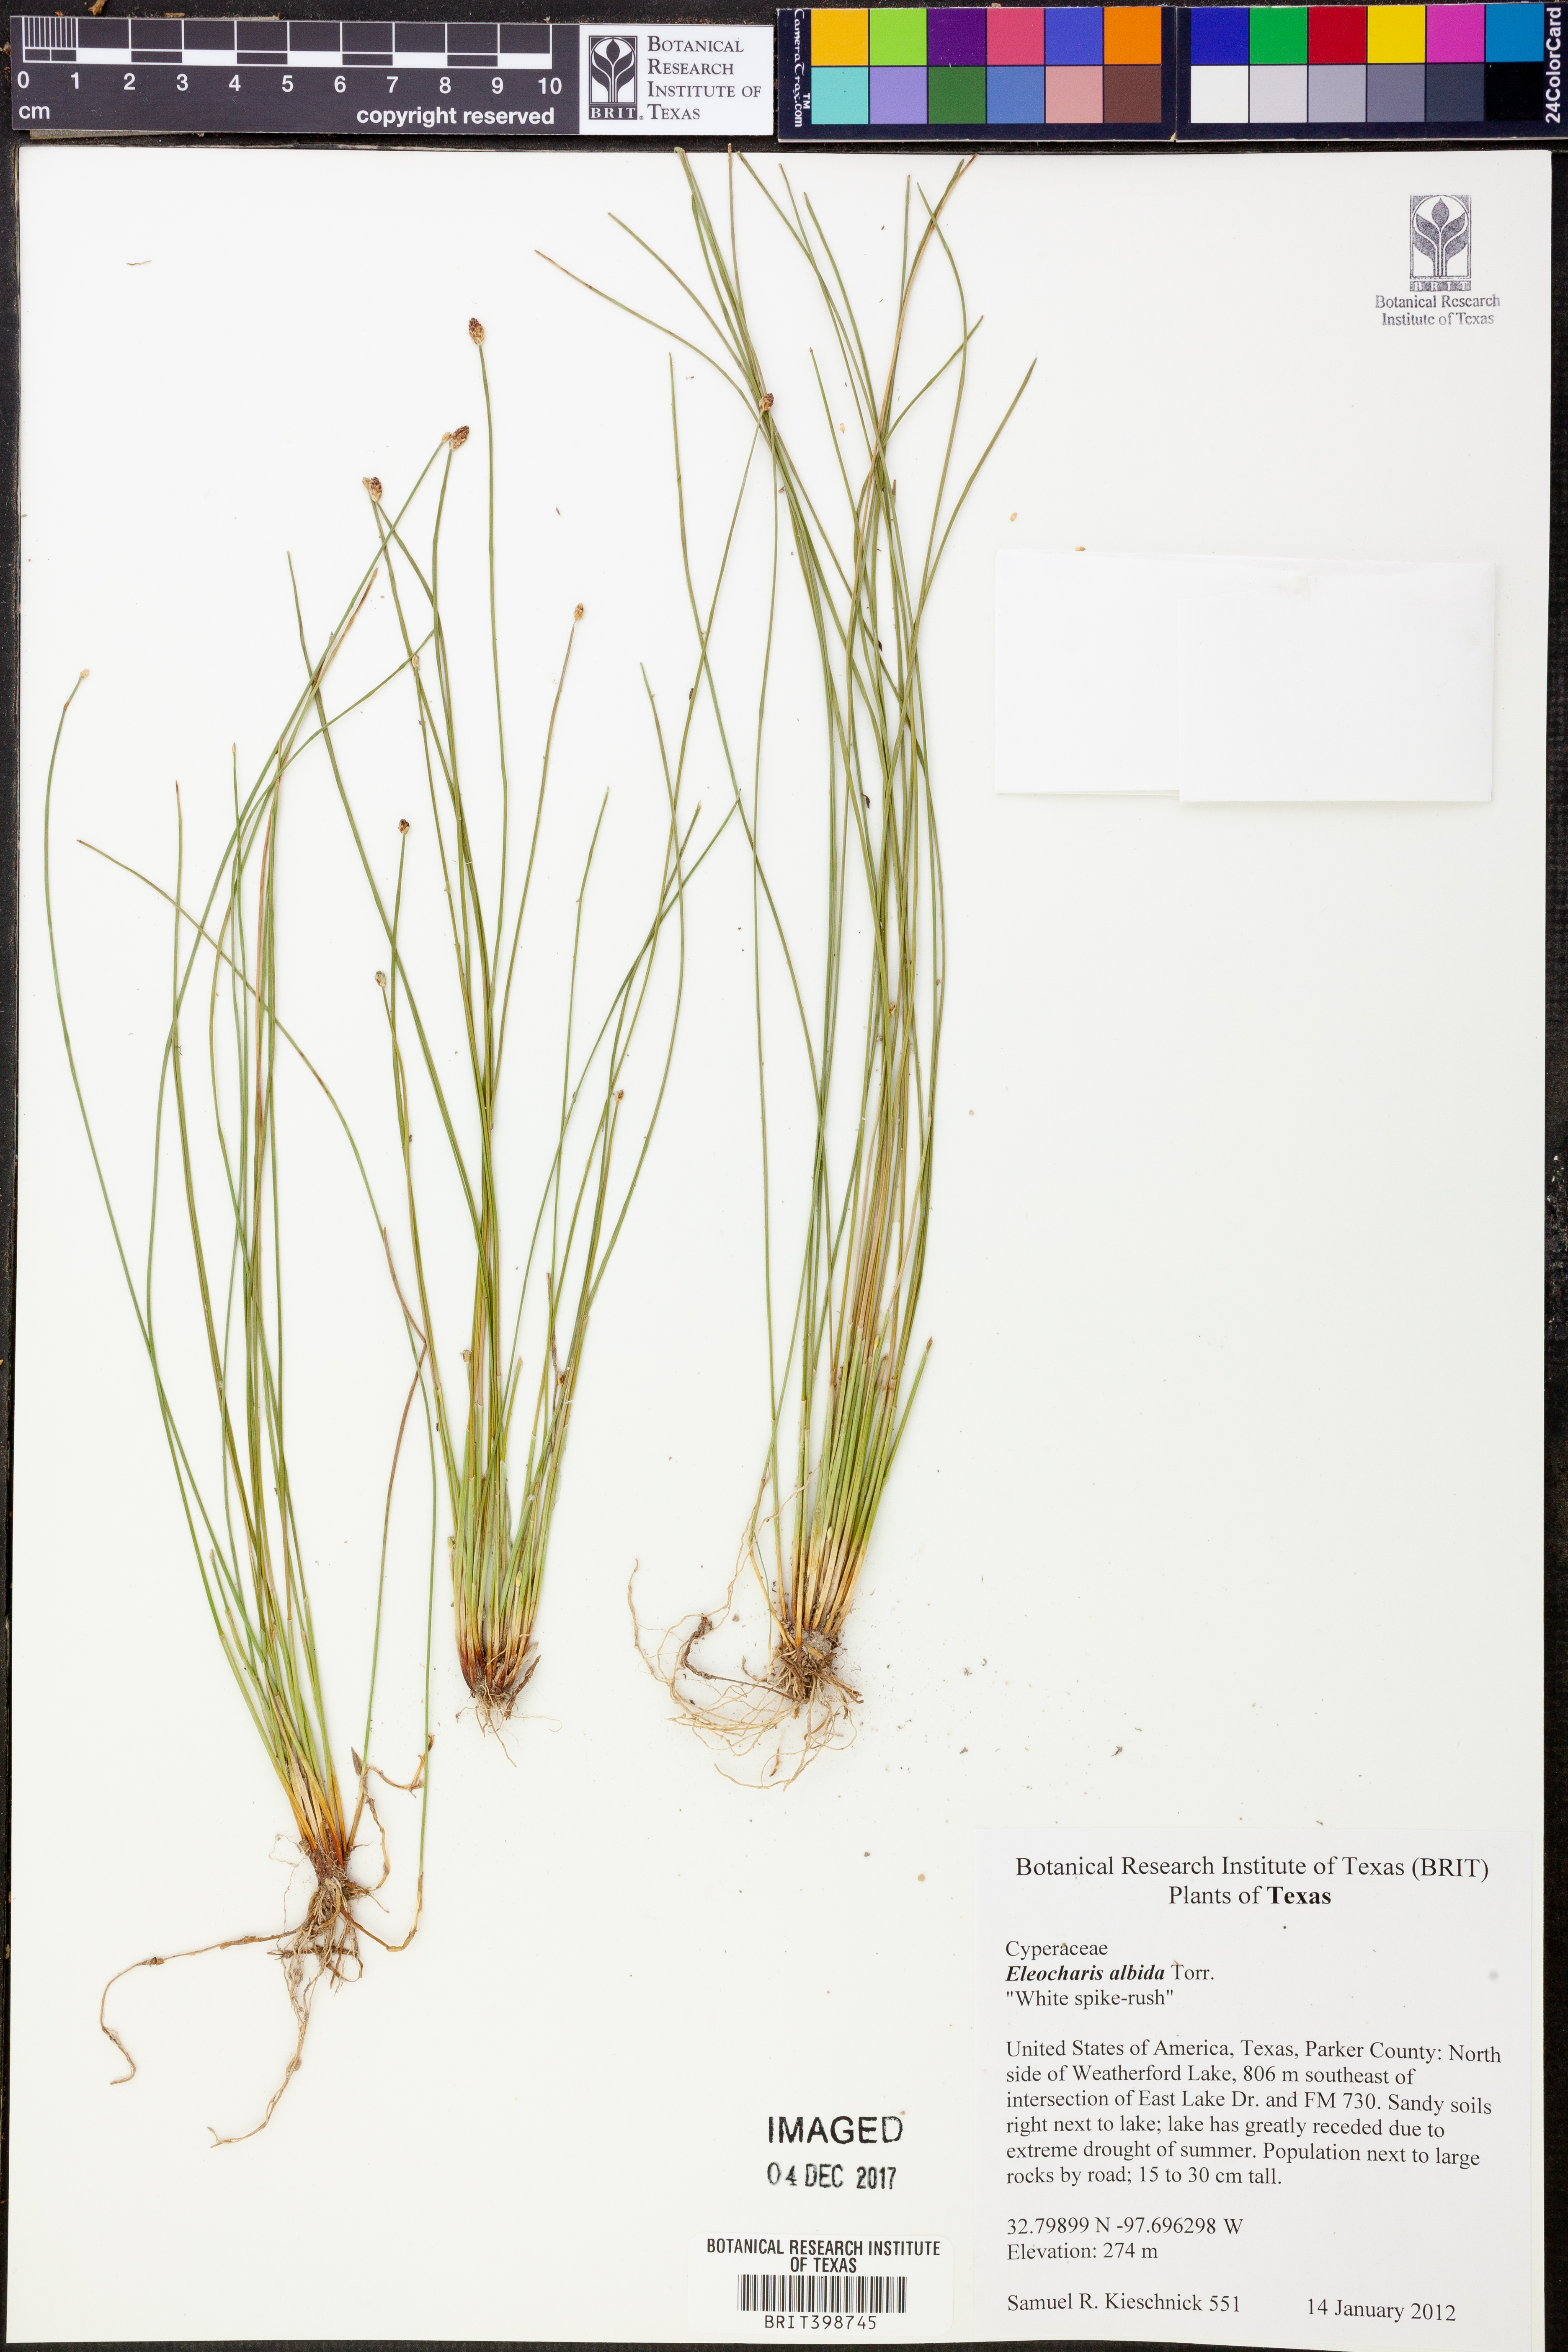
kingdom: Plantae
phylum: Tracheophyta
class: Liliopsida
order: Poales
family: Cyperaceae
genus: Eleocharis
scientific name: Eleocharis albida
